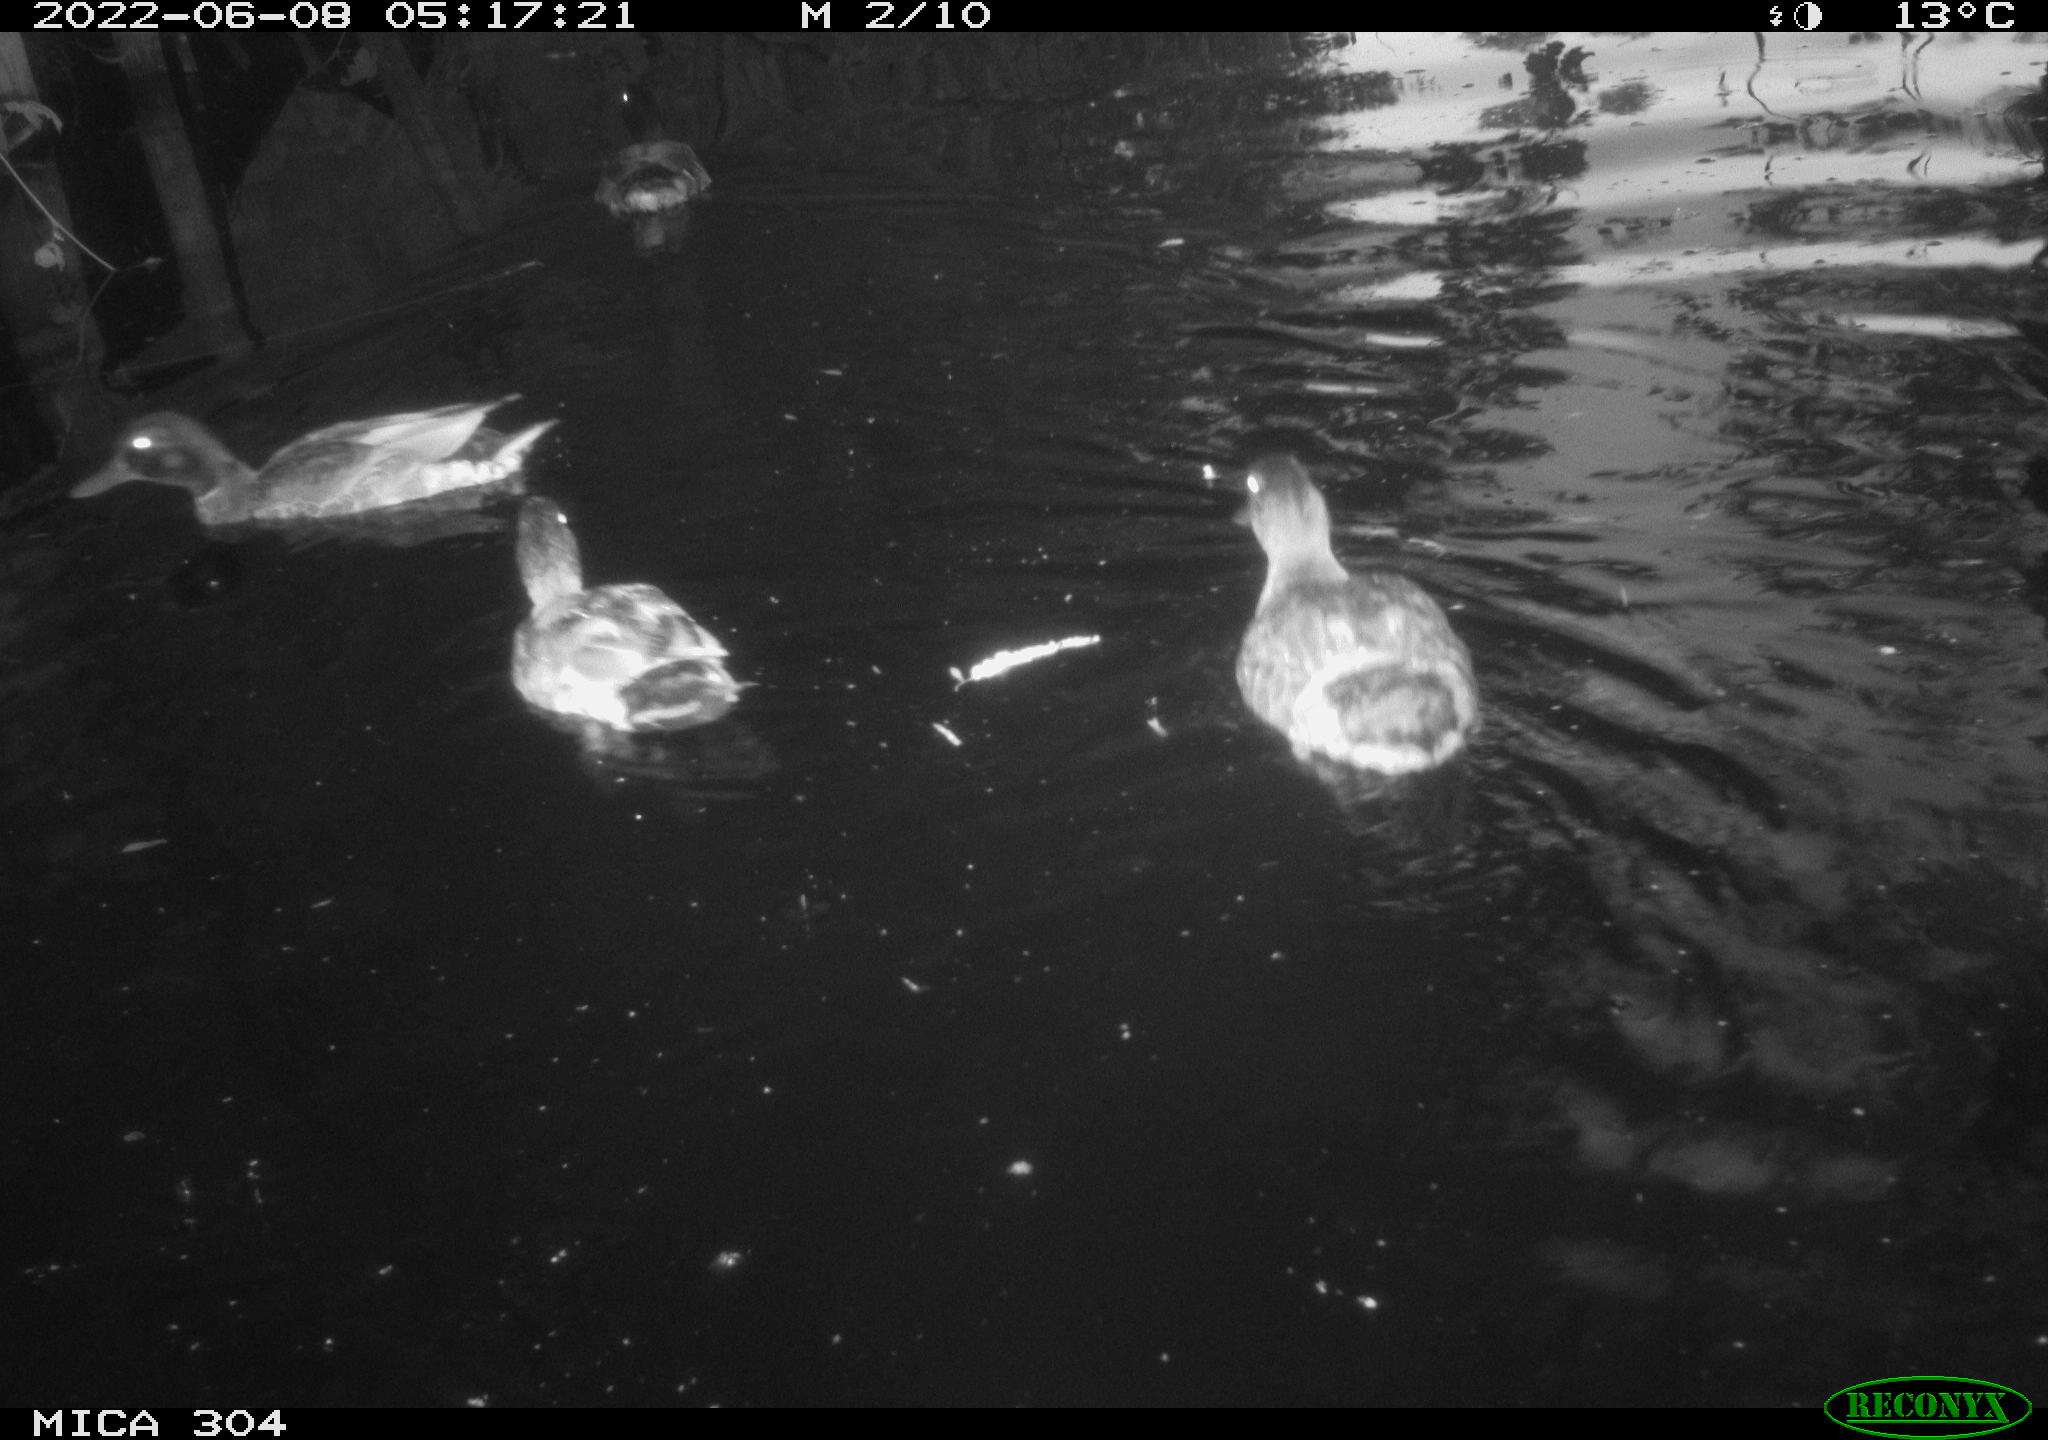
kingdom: Animalia
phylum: Chordata
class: Aves
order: Anseriformes
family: Anatidae
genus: Mareca
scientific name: Mareca strepera
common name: Gadwall
